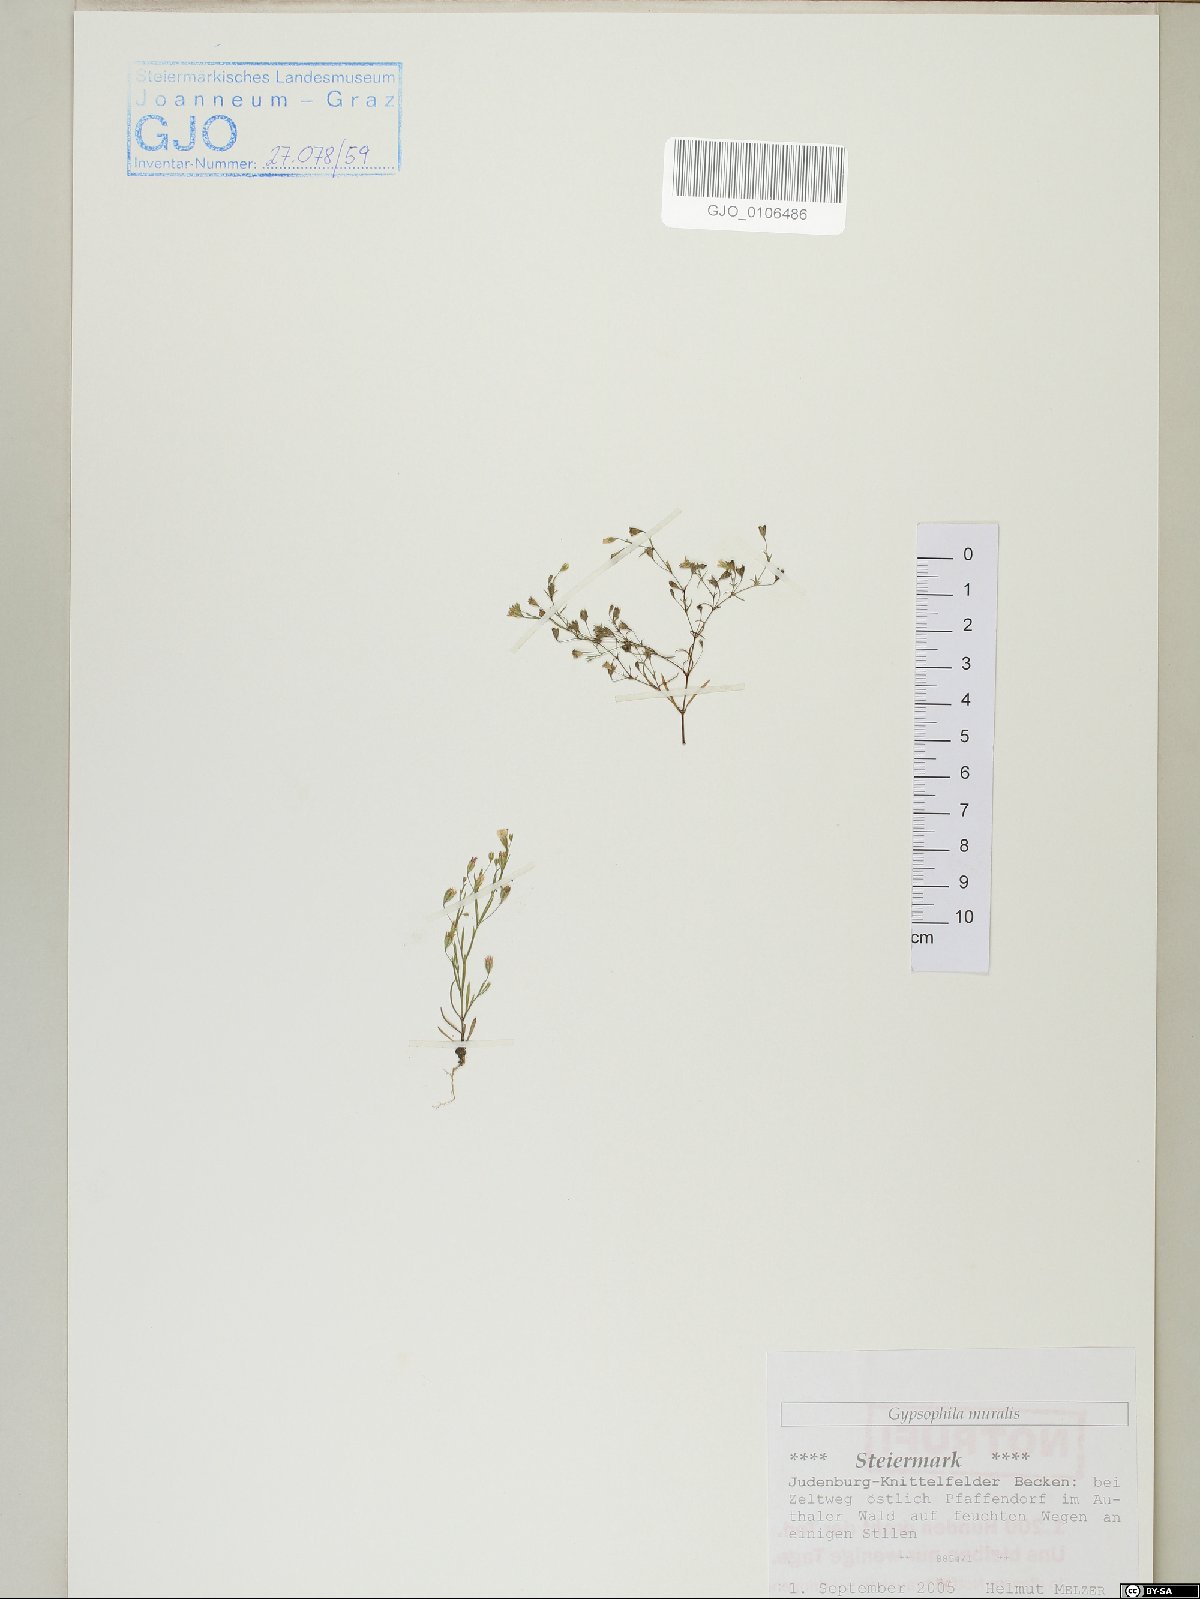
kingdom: Plantae
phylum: Tracheophyta
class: Magnoliopsida
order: Caryophyllales
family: Caryophyllaceae
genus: Psammophiliella
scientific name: Psammophiliella muralis
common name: Cushion baby's-breath
